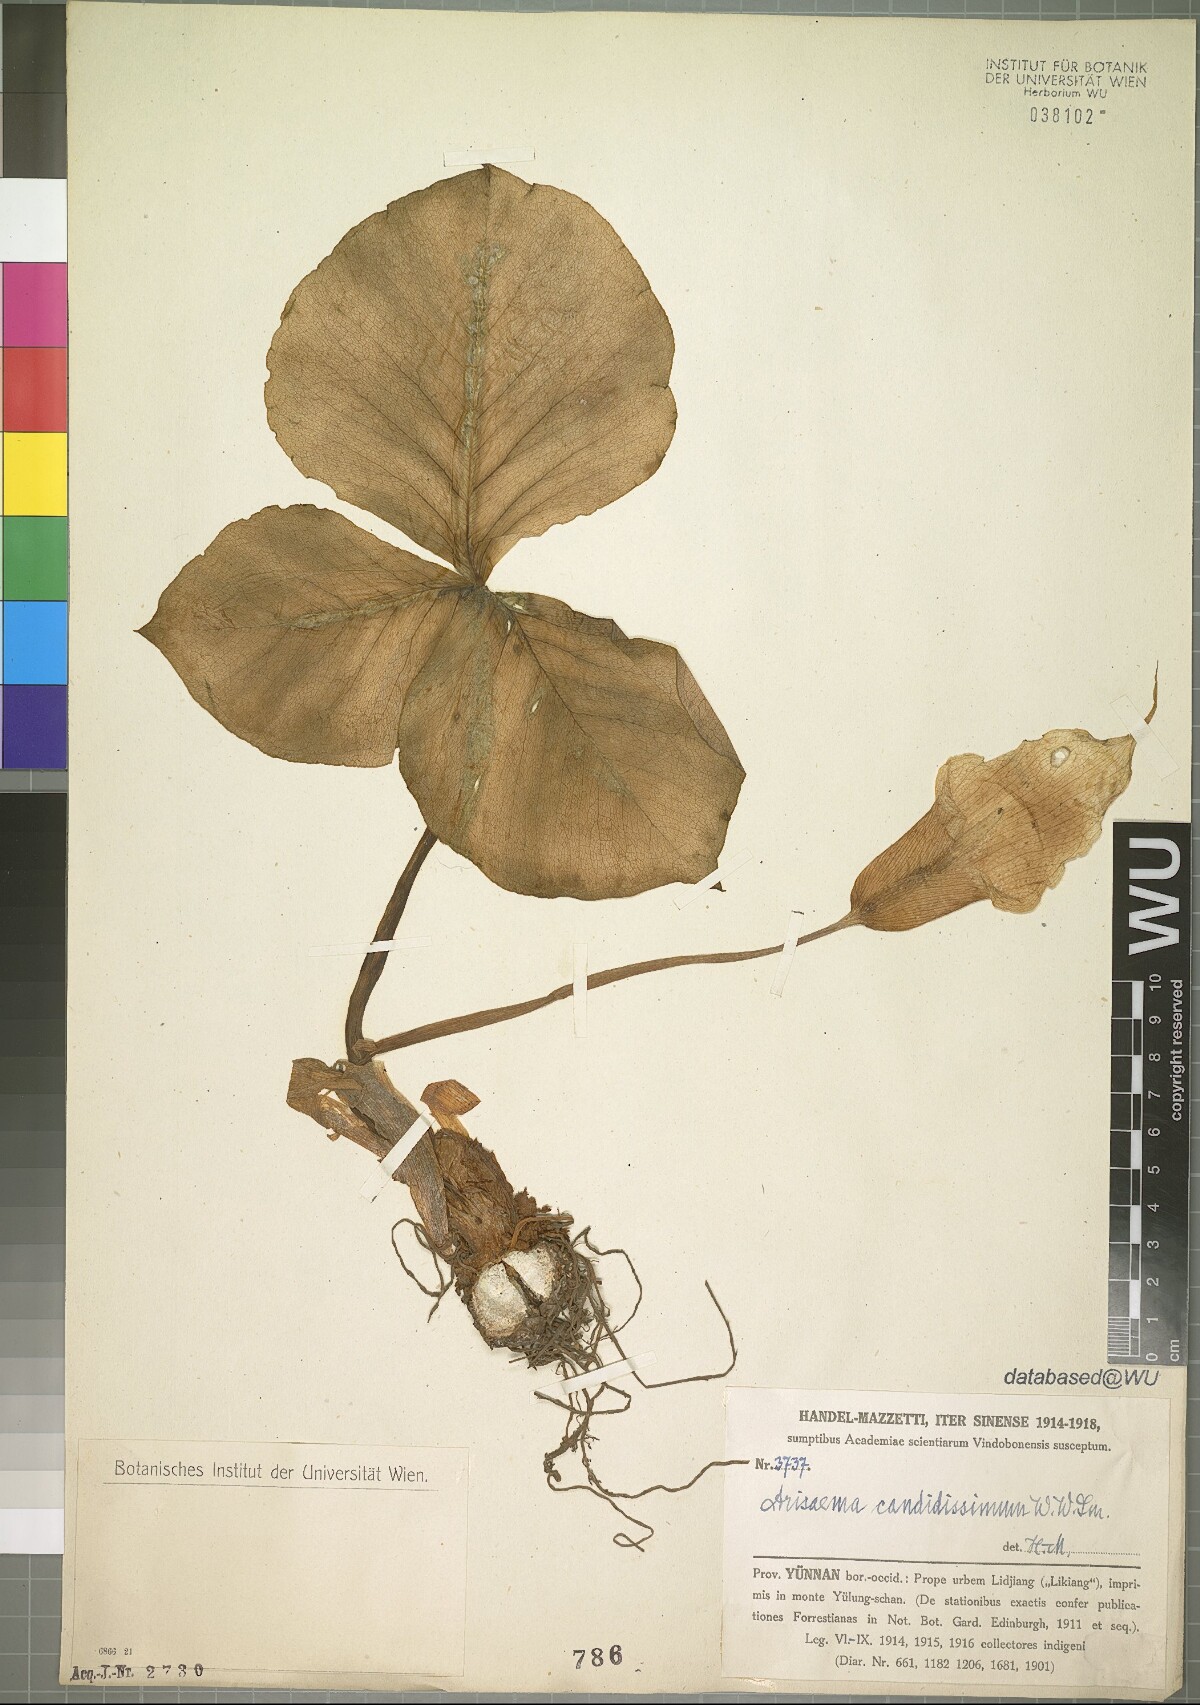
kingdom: Plantae
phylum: Tracheophyta
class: Liliopsida
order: Alismatales
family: Araceae
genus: Arisaema
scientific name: Arisaema candidissimum
